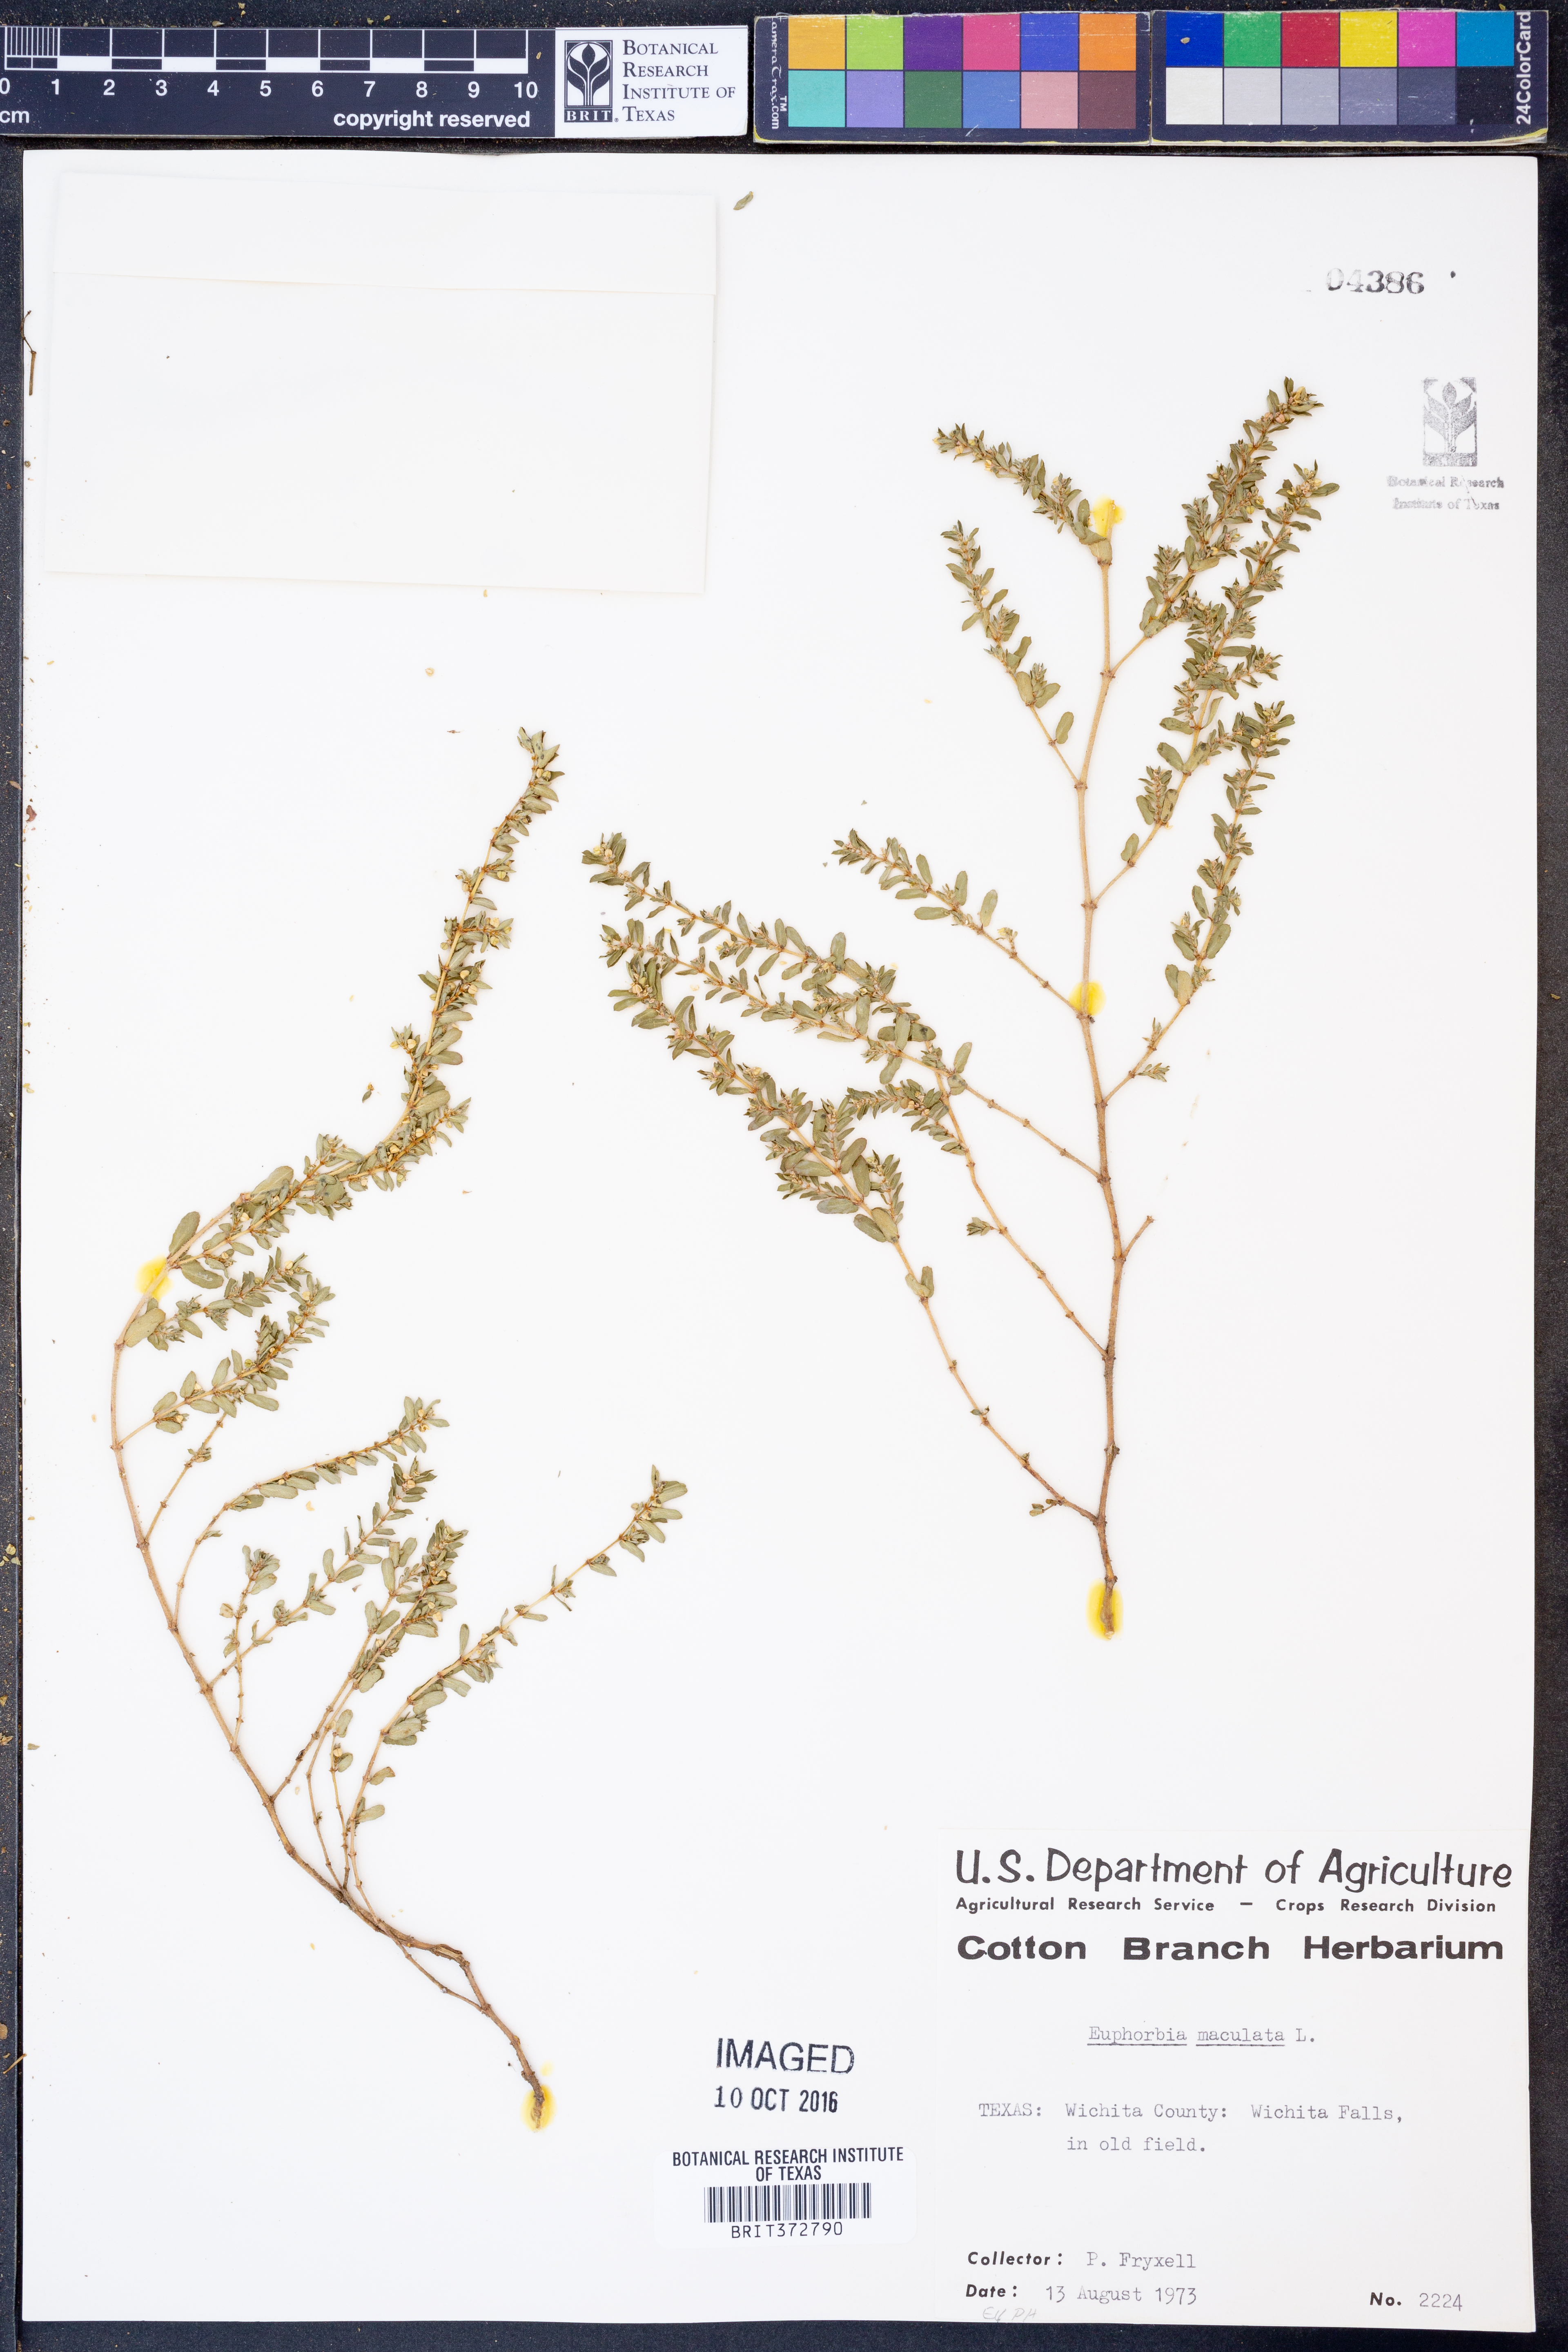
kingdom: Plantae
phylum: Tracheophyta
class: Magnoliopsida
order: Malpighiales
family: Euphorbiaceae
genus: Euphorbia
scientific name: Euphorbia maculata
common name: Spotted spurge
